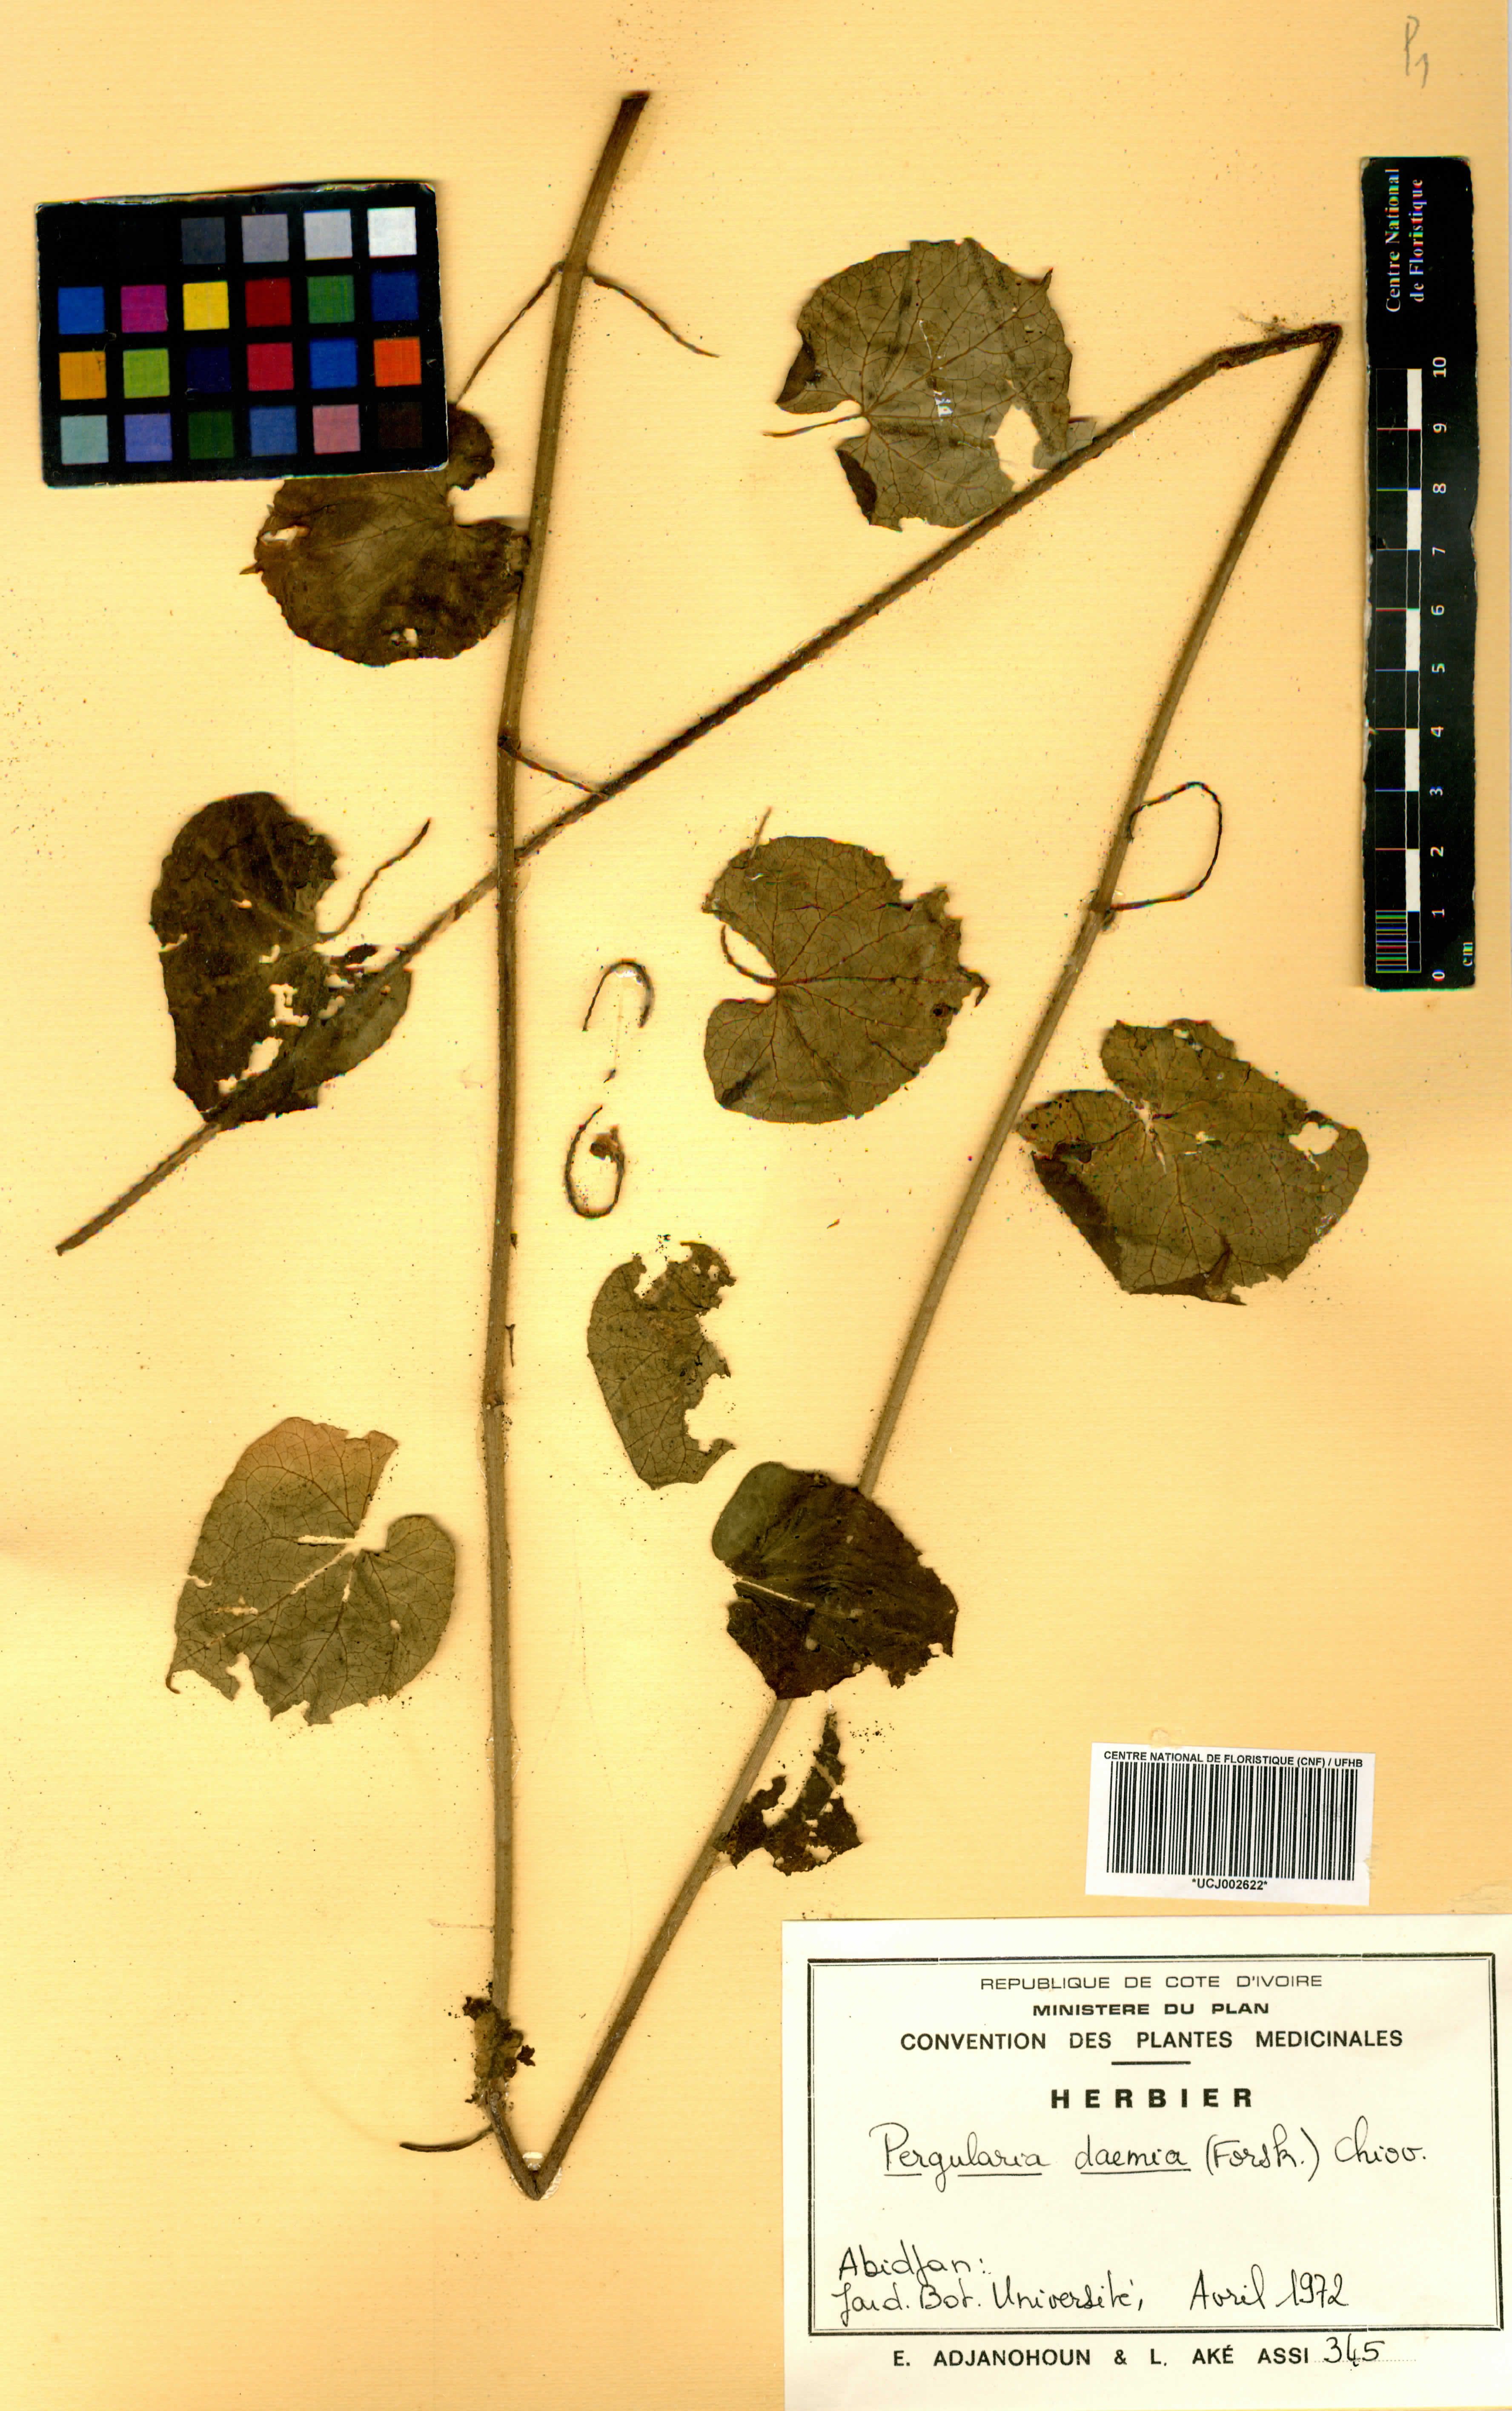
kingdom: Plantae
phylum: Tracheophyta
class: Magnoliopsida
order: Gentianales
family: Apocynaceae
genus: Pergularia
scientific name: Pergularia daemia
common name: Trellis-vine
